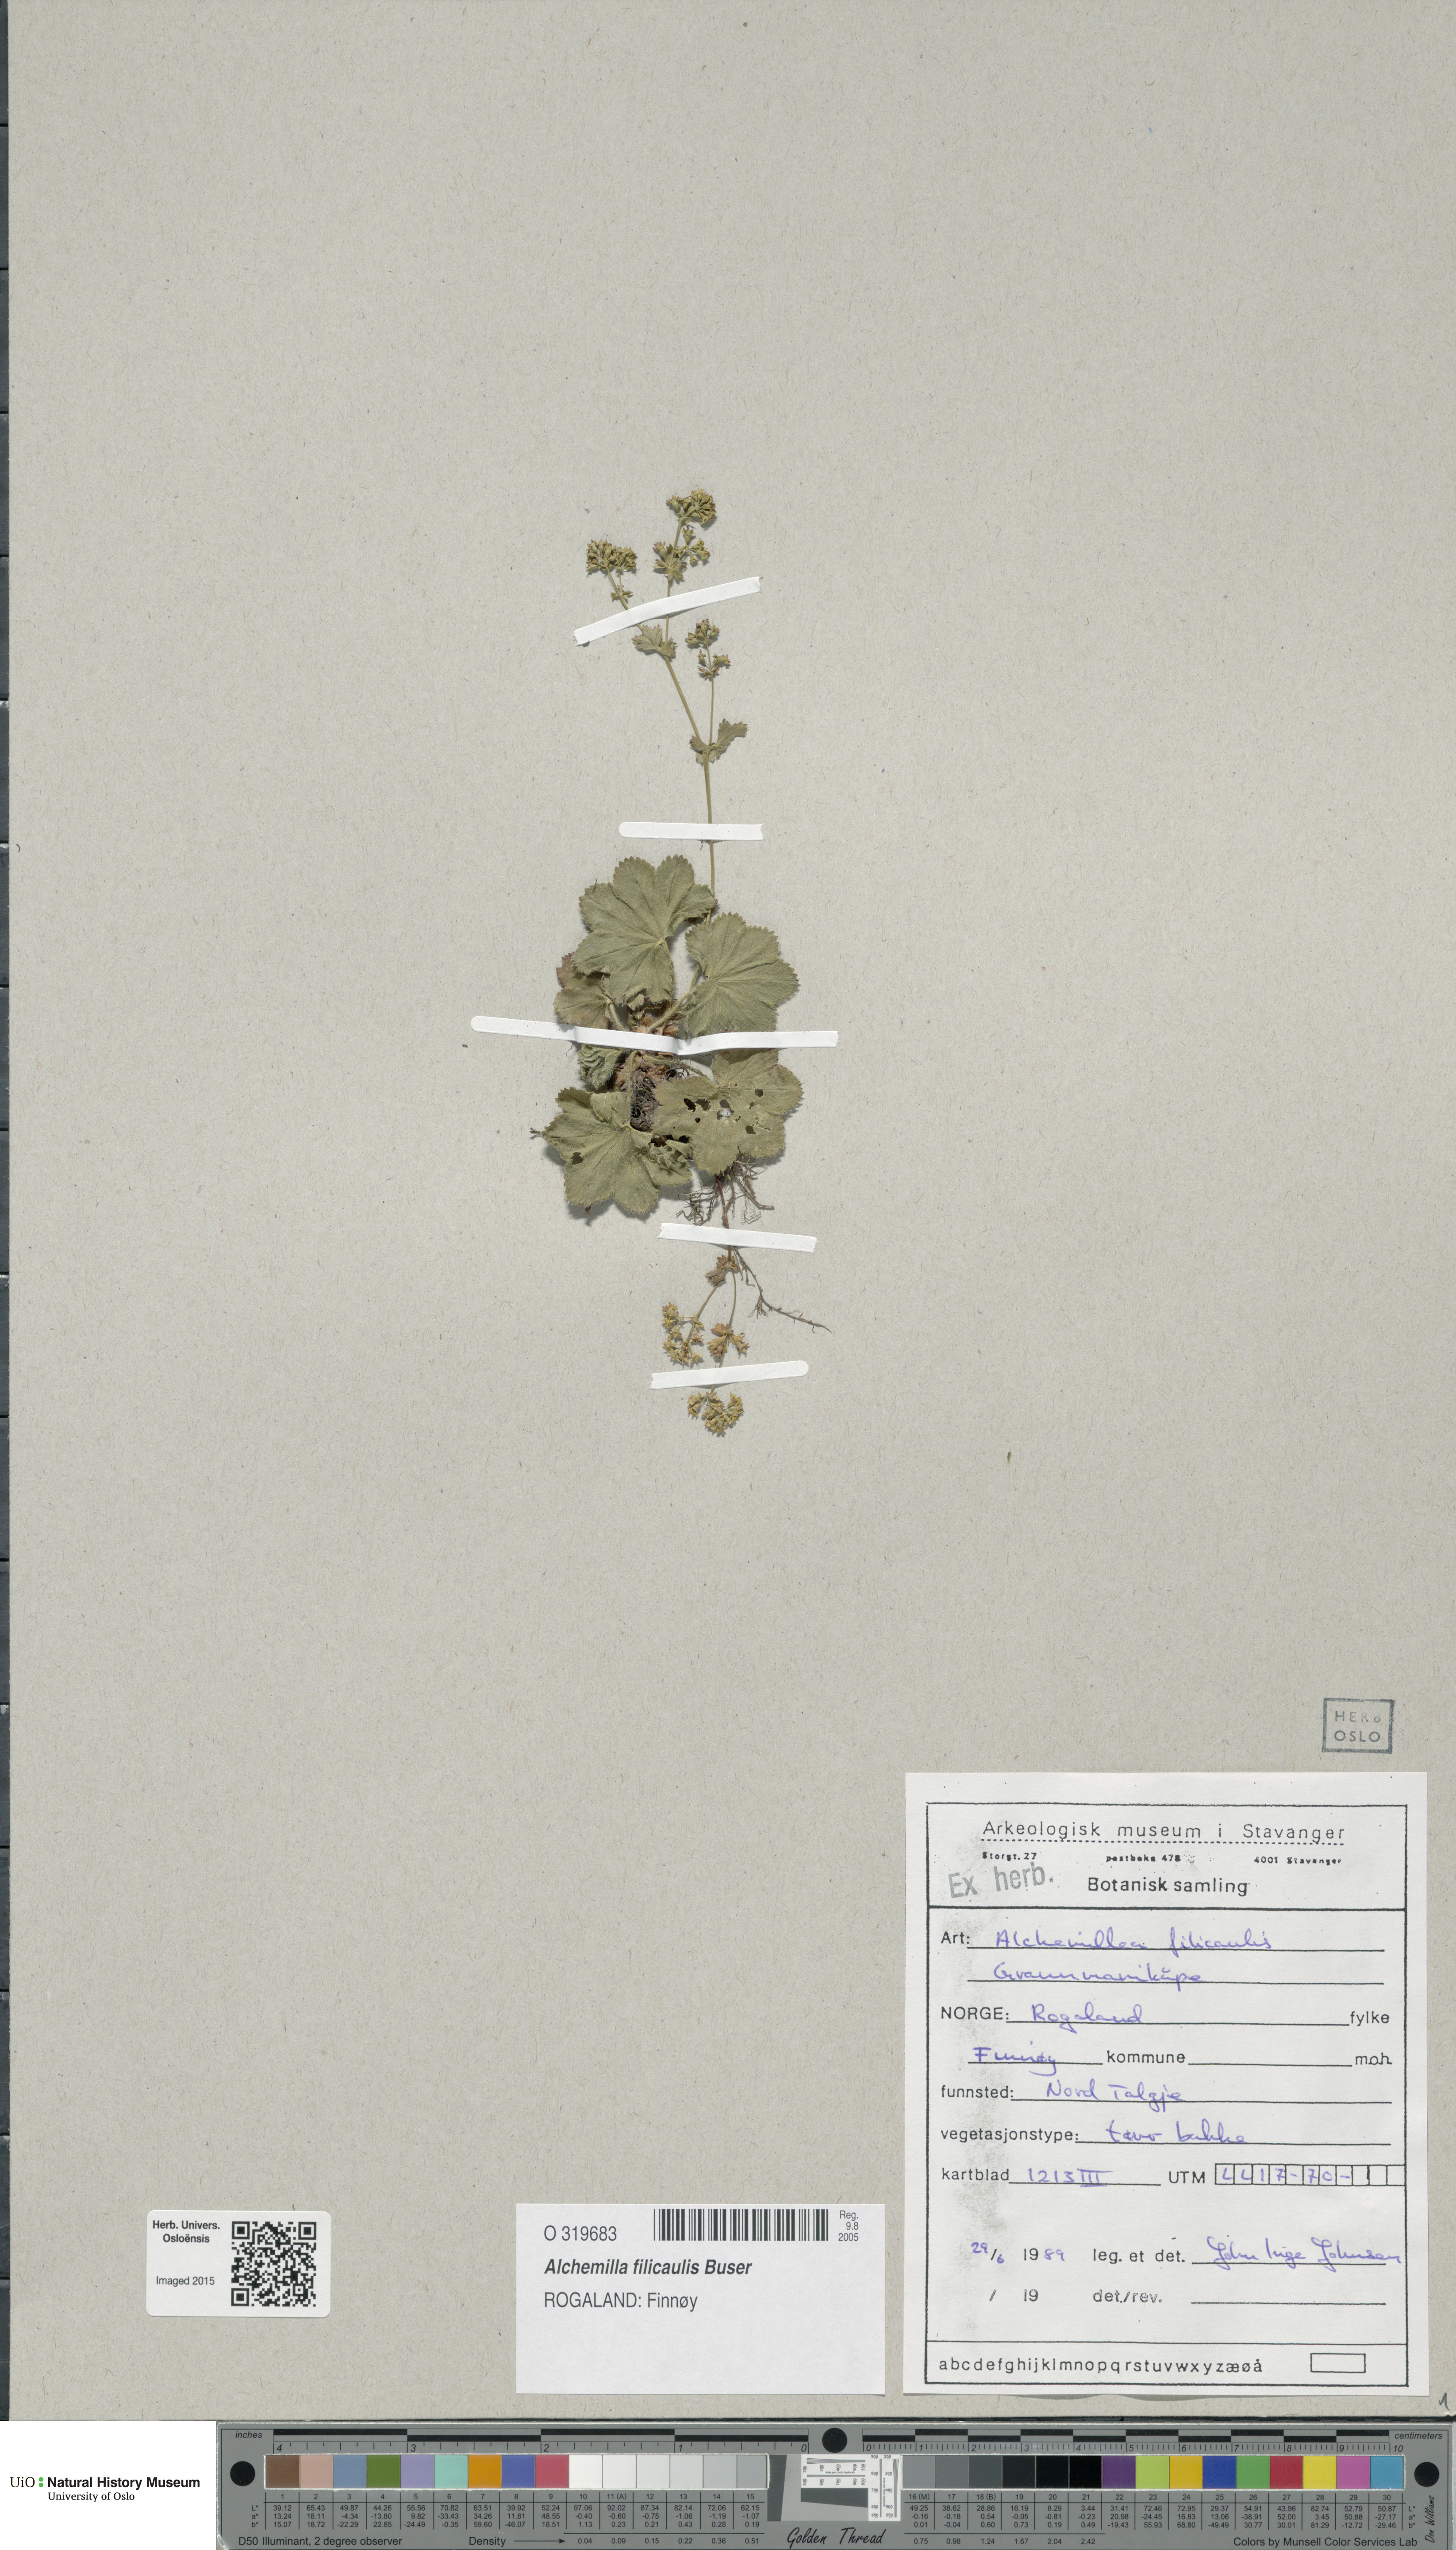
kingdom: Plantae
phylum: Tracheophyta
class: Magnoliopsida
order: Rosales
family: Rosaceae
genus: Alchemilla
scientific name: Alchemilla filicaulis
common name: Hairy lady's-mantle
